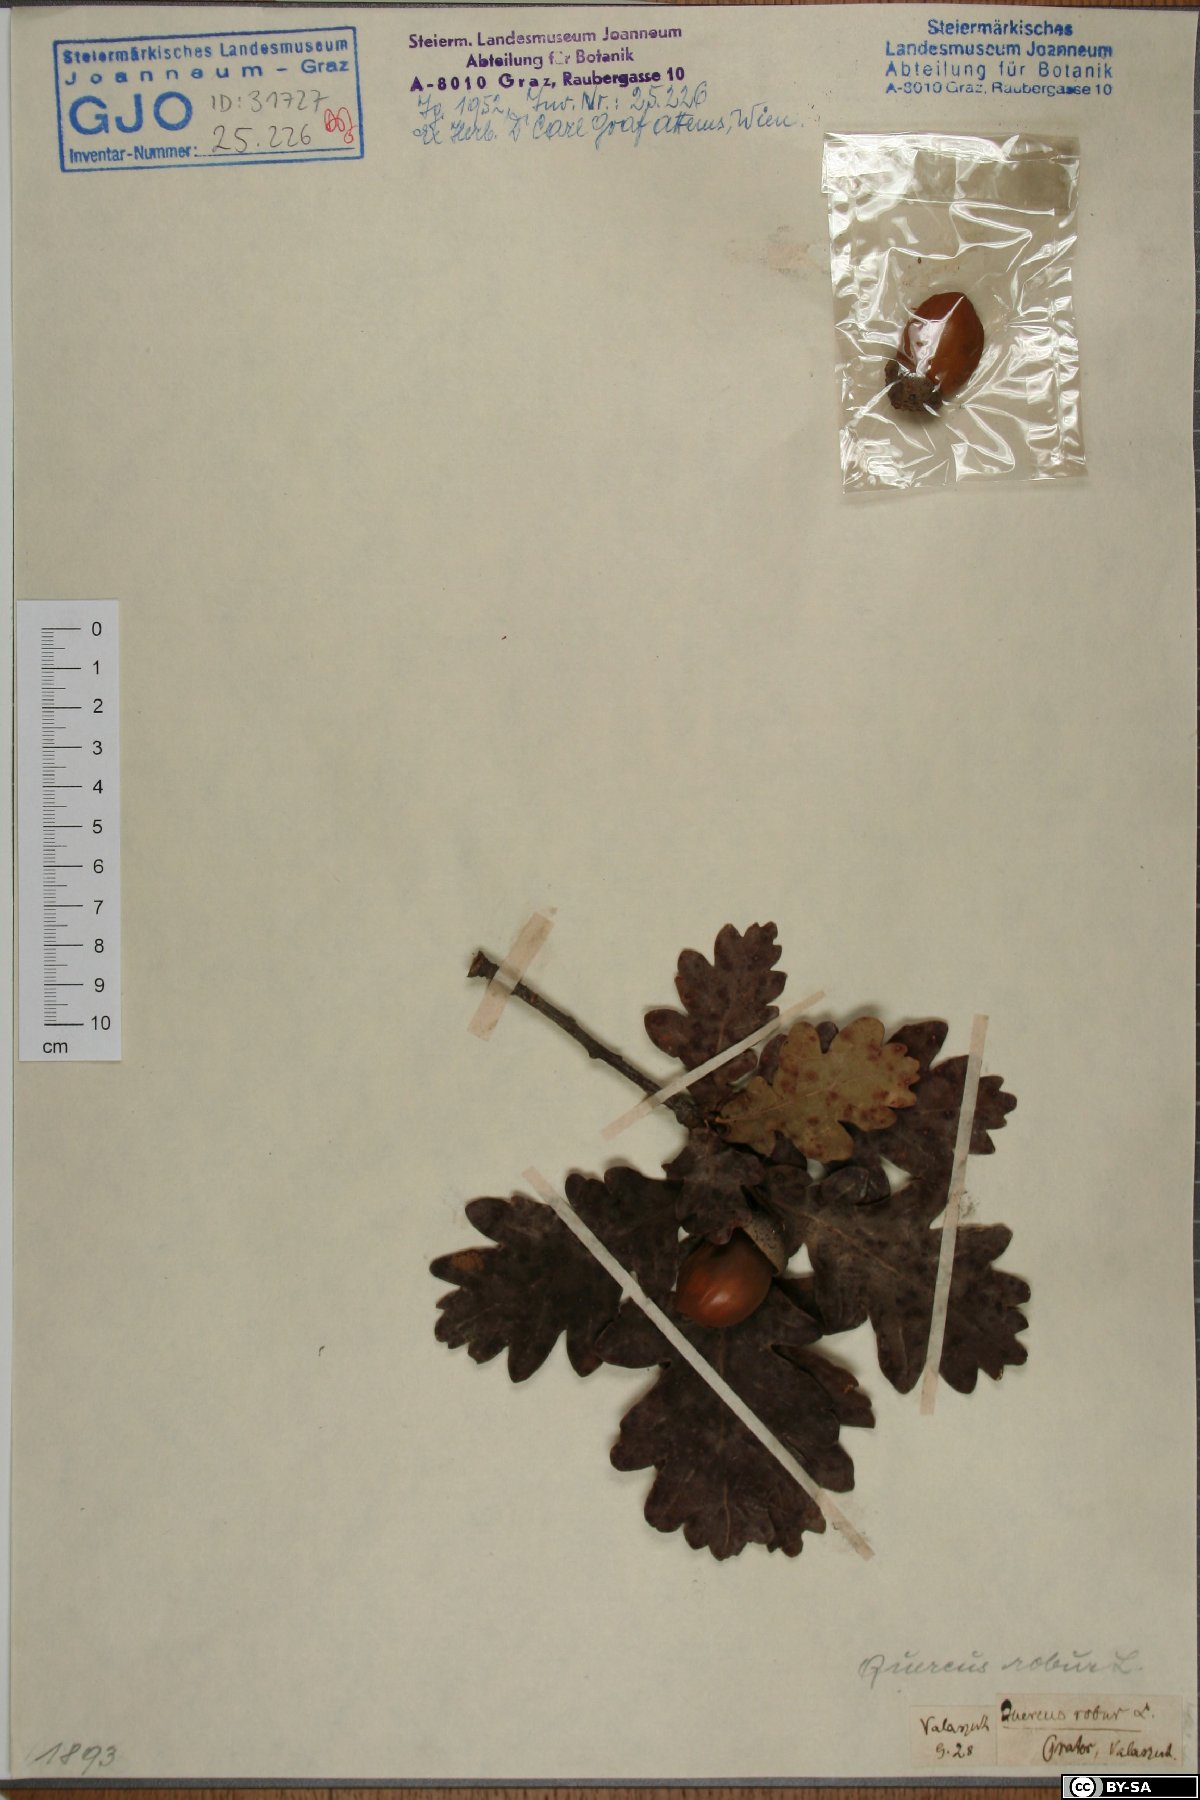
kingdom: Plantae
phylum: Tracheophyta
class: Magnoliopsida
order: Fagales
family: Fagaceae
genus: Quercus
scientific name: Quercus robur
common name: Pedunculate oak
